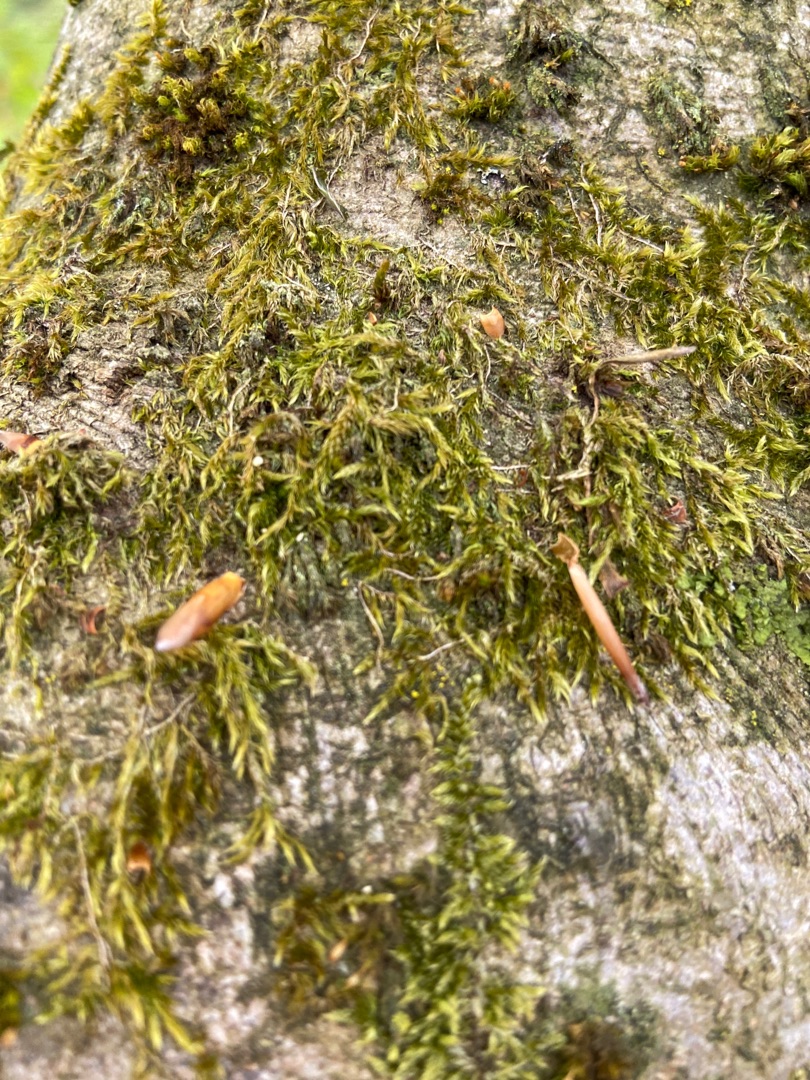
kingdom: Plantae
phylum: Bryophyta
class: Bryopsida
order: Hypnales
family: Hypnaceae
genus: Hypnum
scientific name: Hypnum
